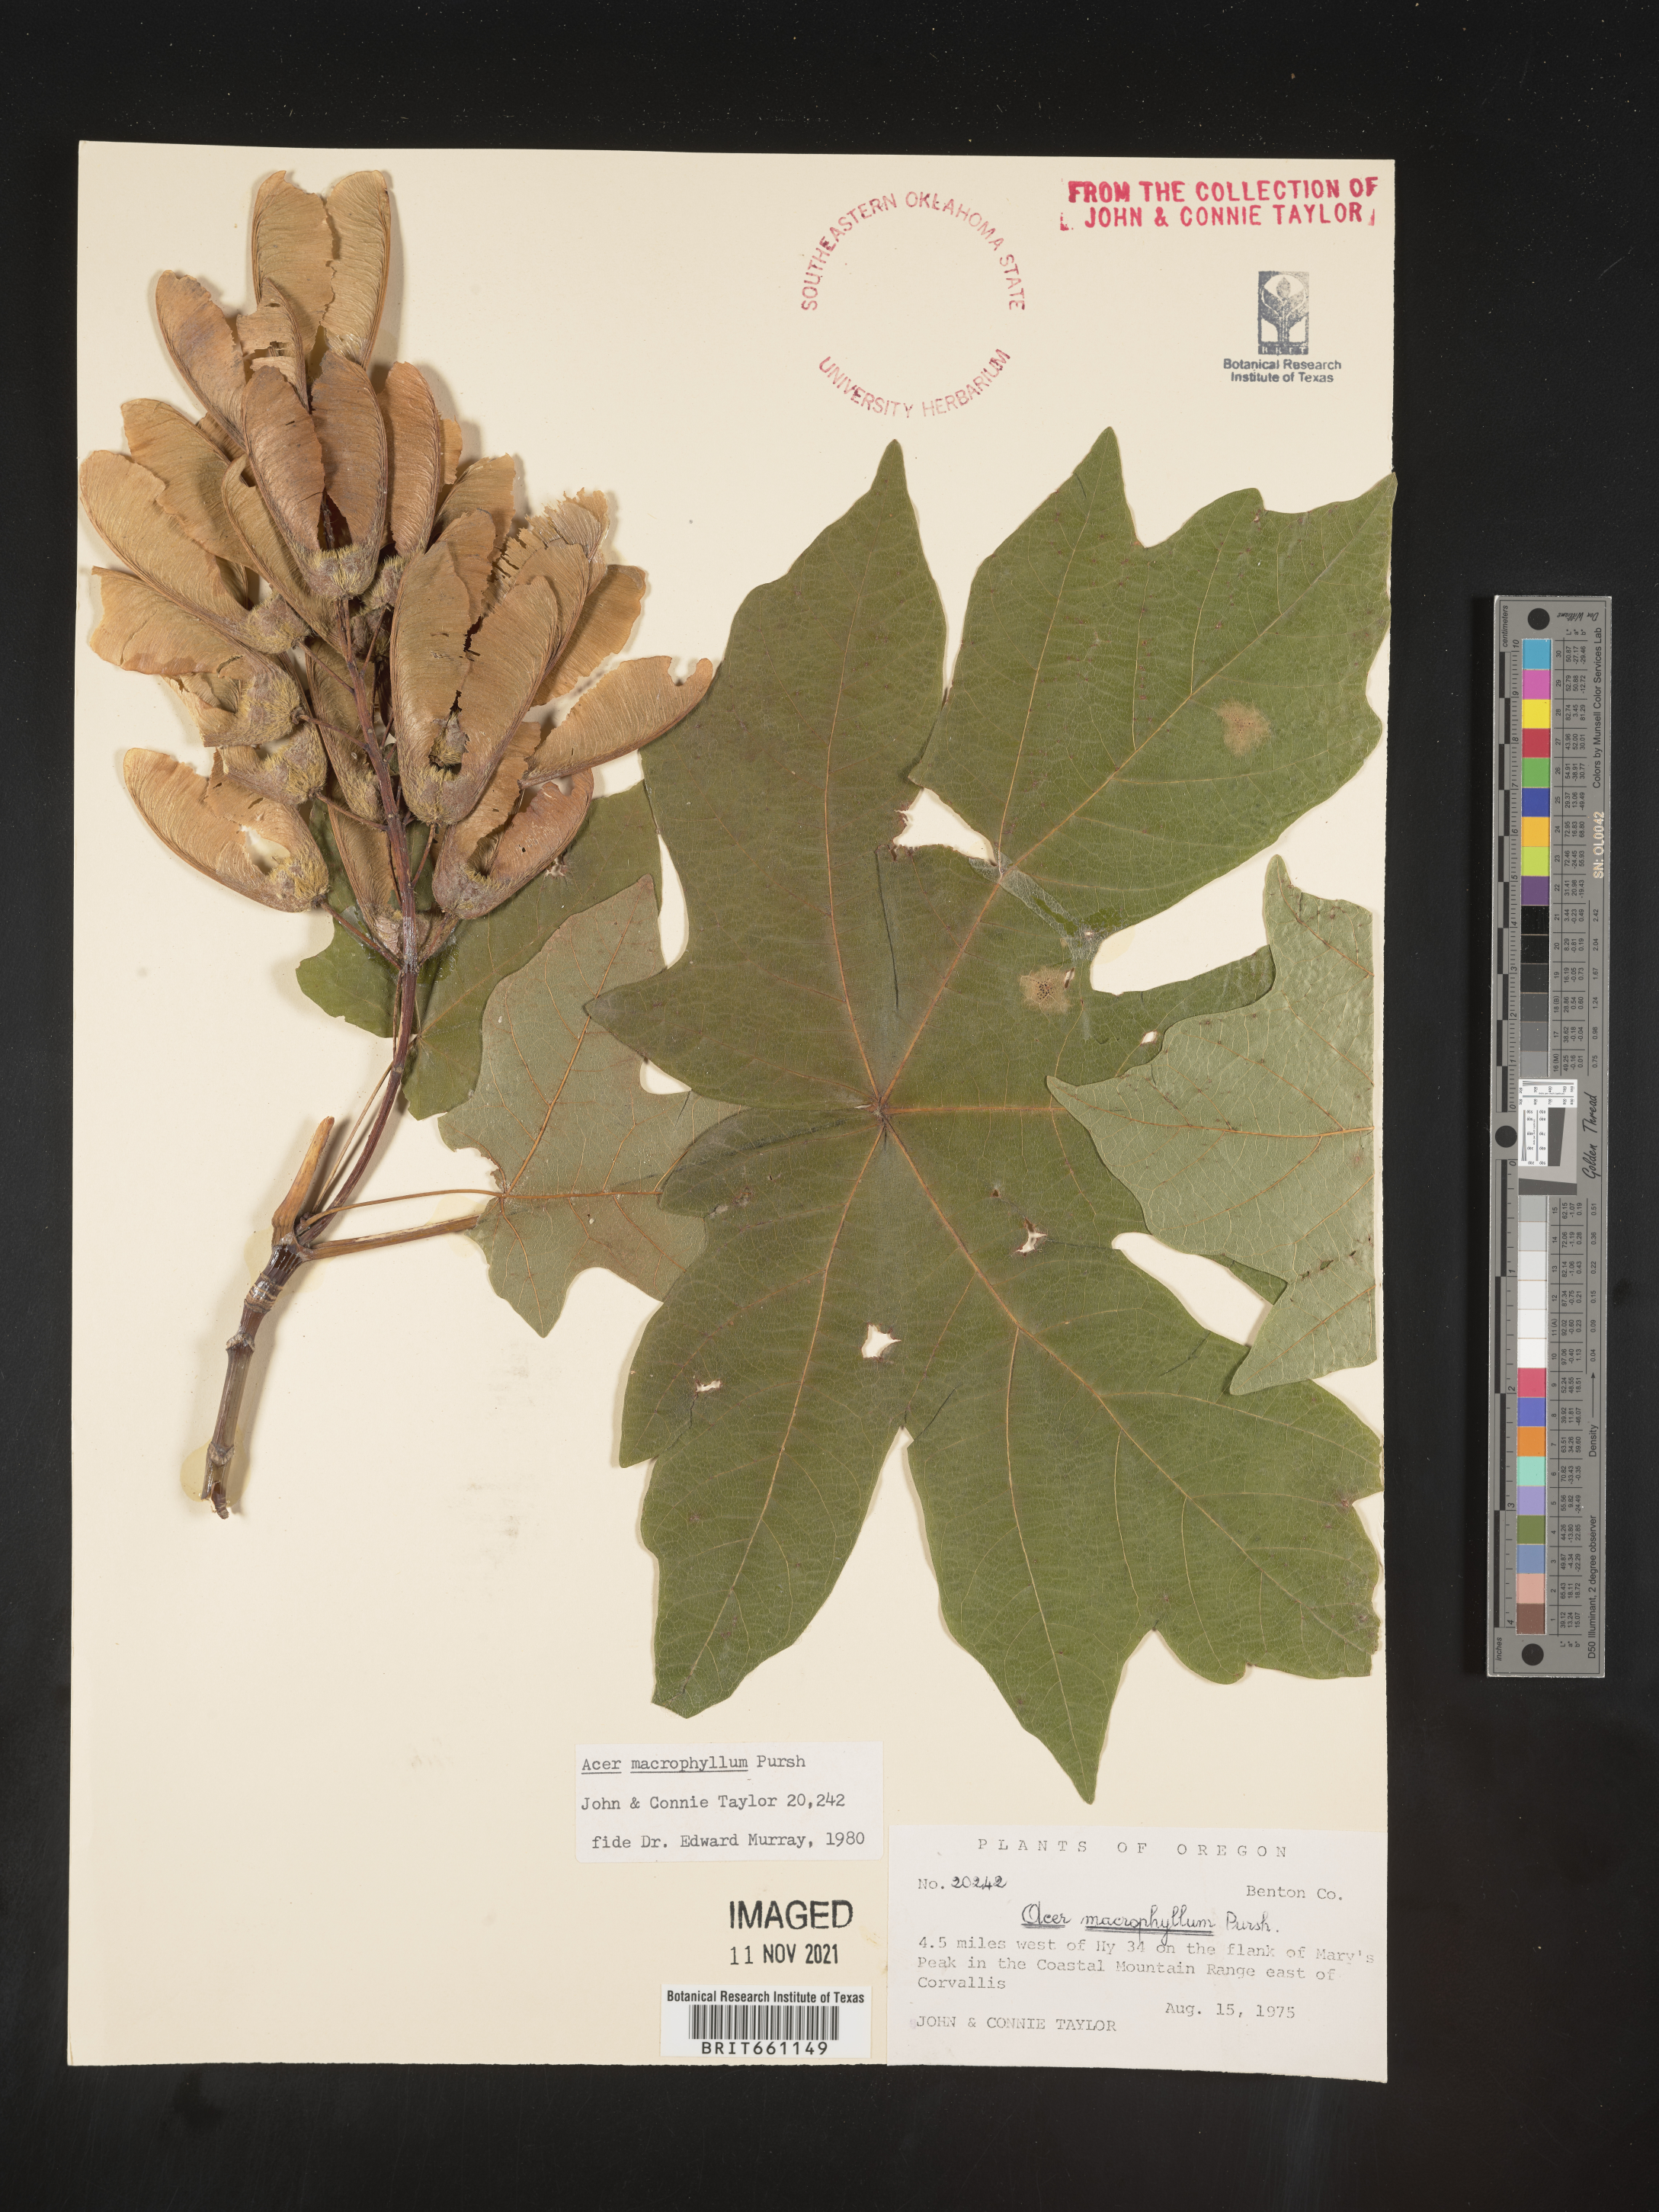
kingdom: Plantae
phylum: Tracheophyta
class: Magnoliopsida
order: Sapindales
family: Sapindaceae
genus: Acer
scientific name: Acer macrophyllum
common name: Oregon maple
